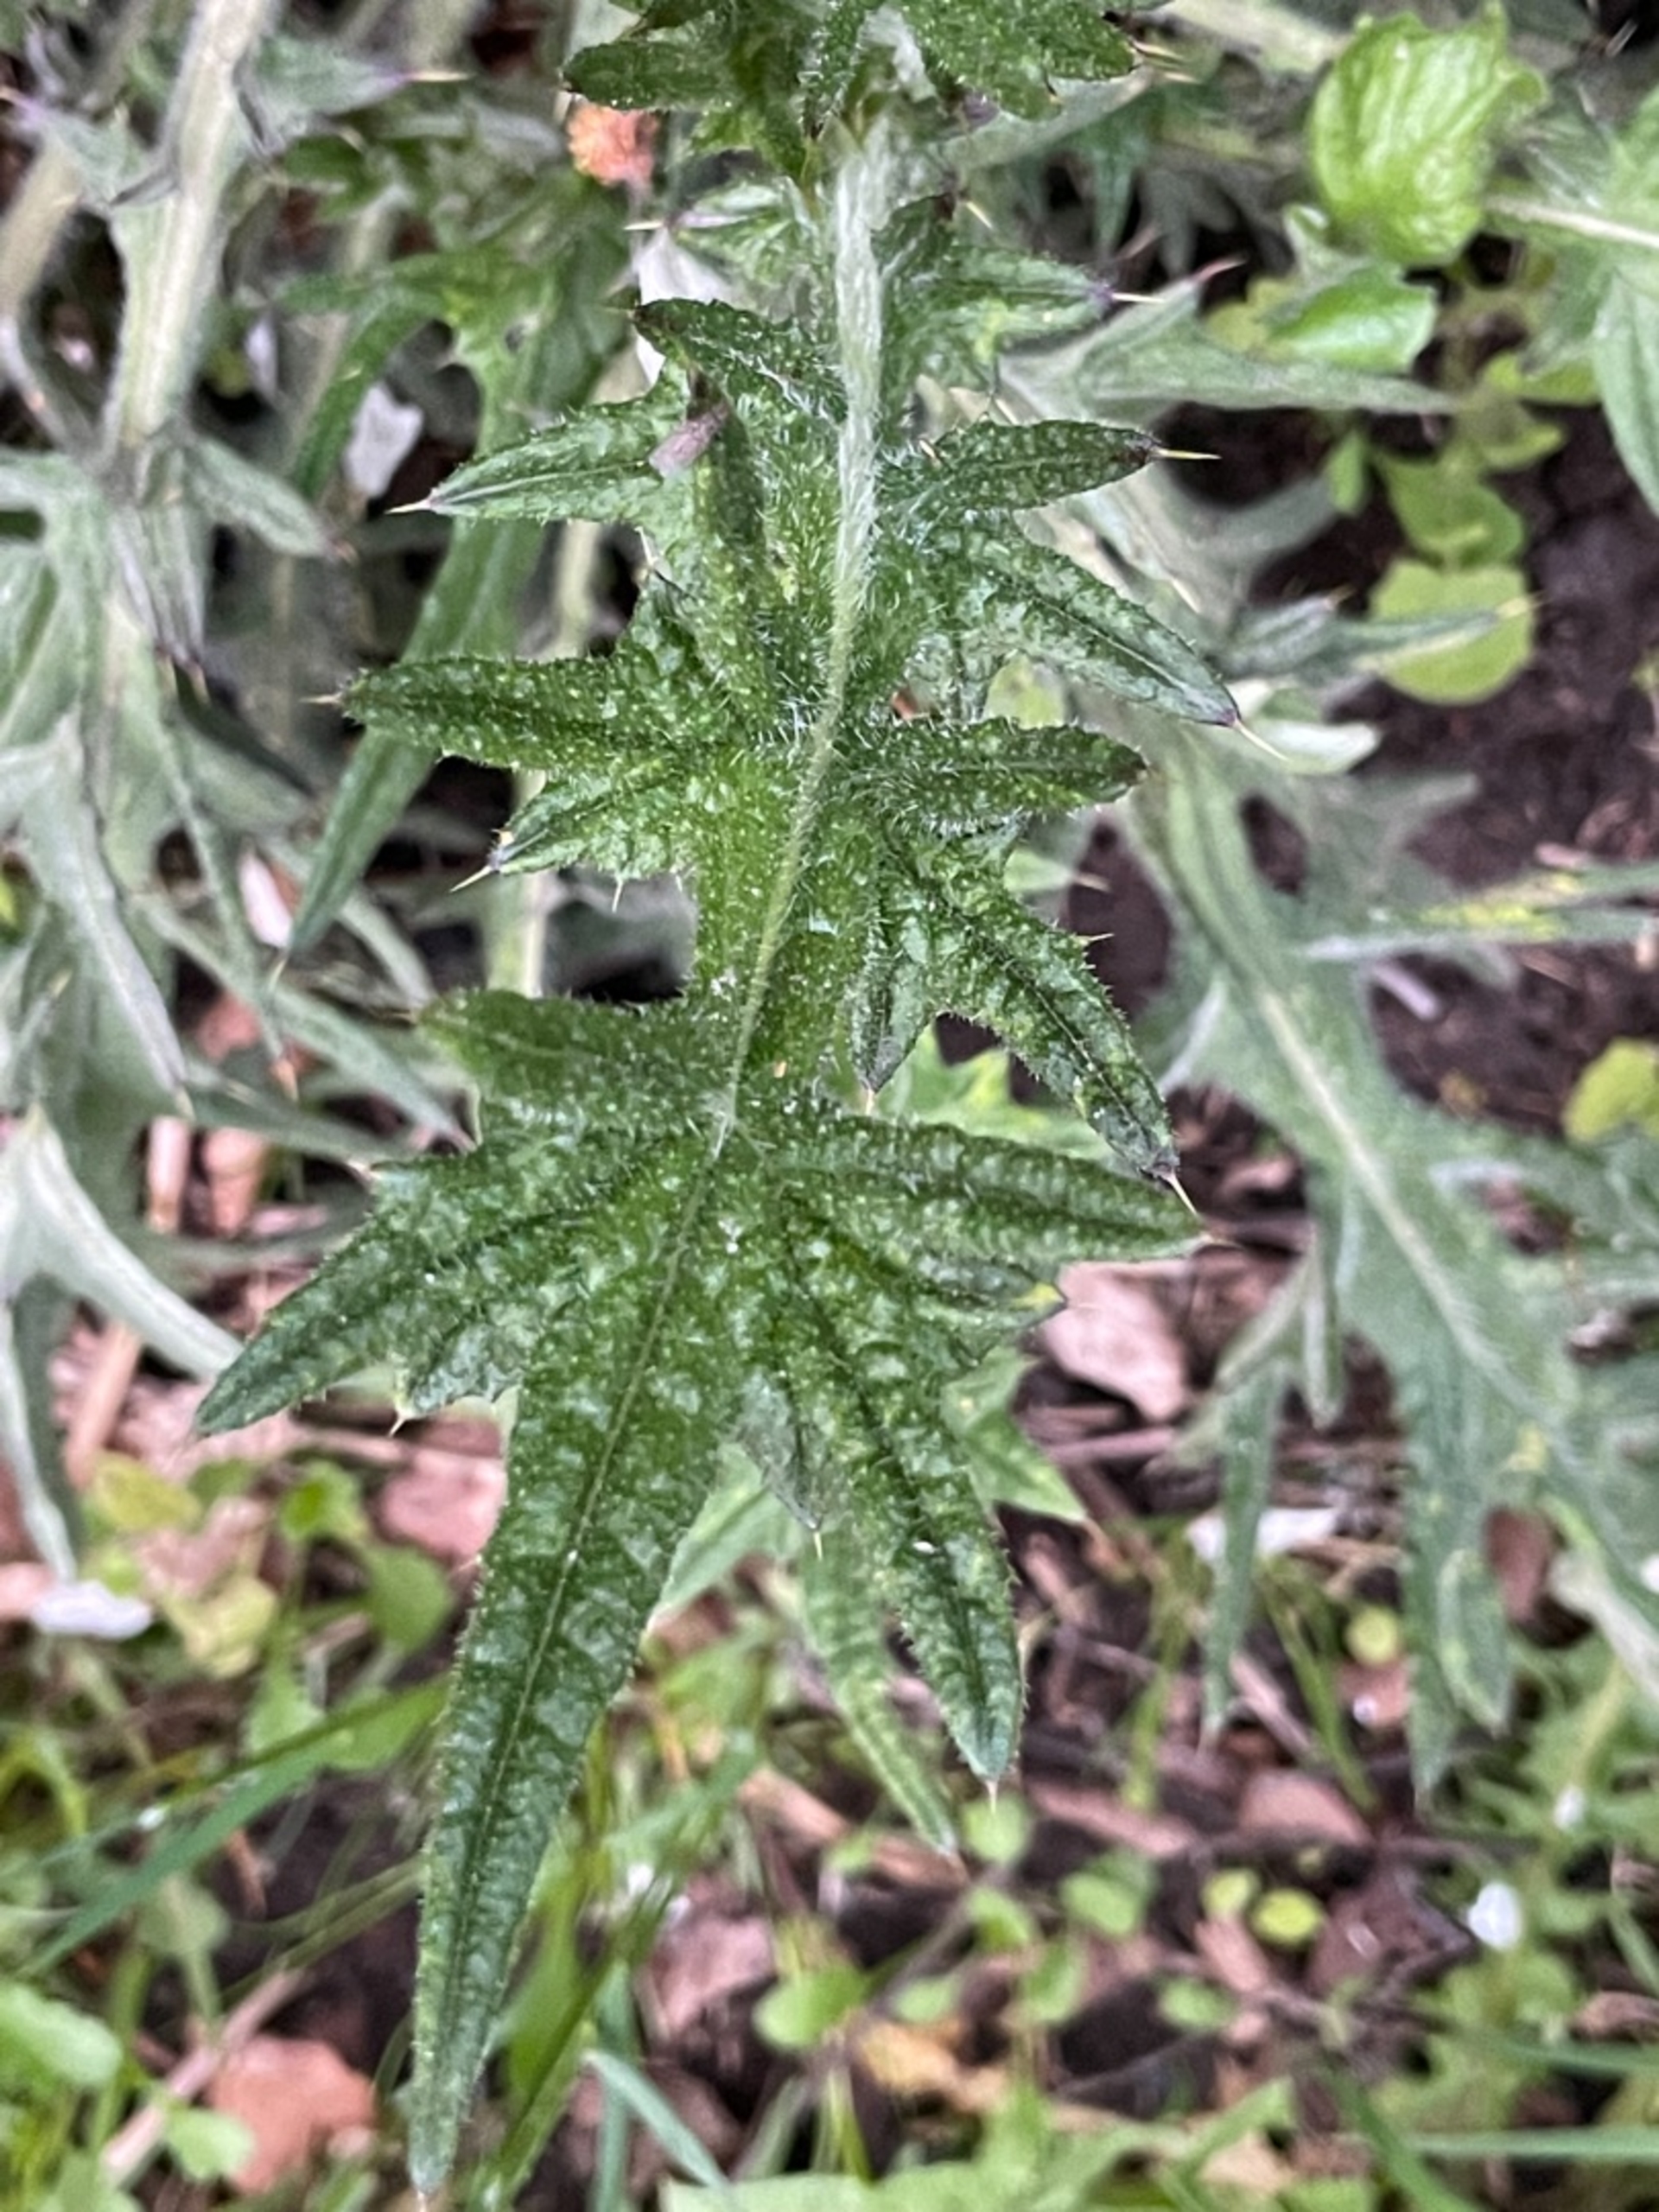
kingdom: Plantae
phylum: Tracheophyta
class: Magnoliopsida
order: Asterales
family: Asteraceae
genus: Cirsium
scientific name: Cirsium vulgare
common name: Horse-tidsel
